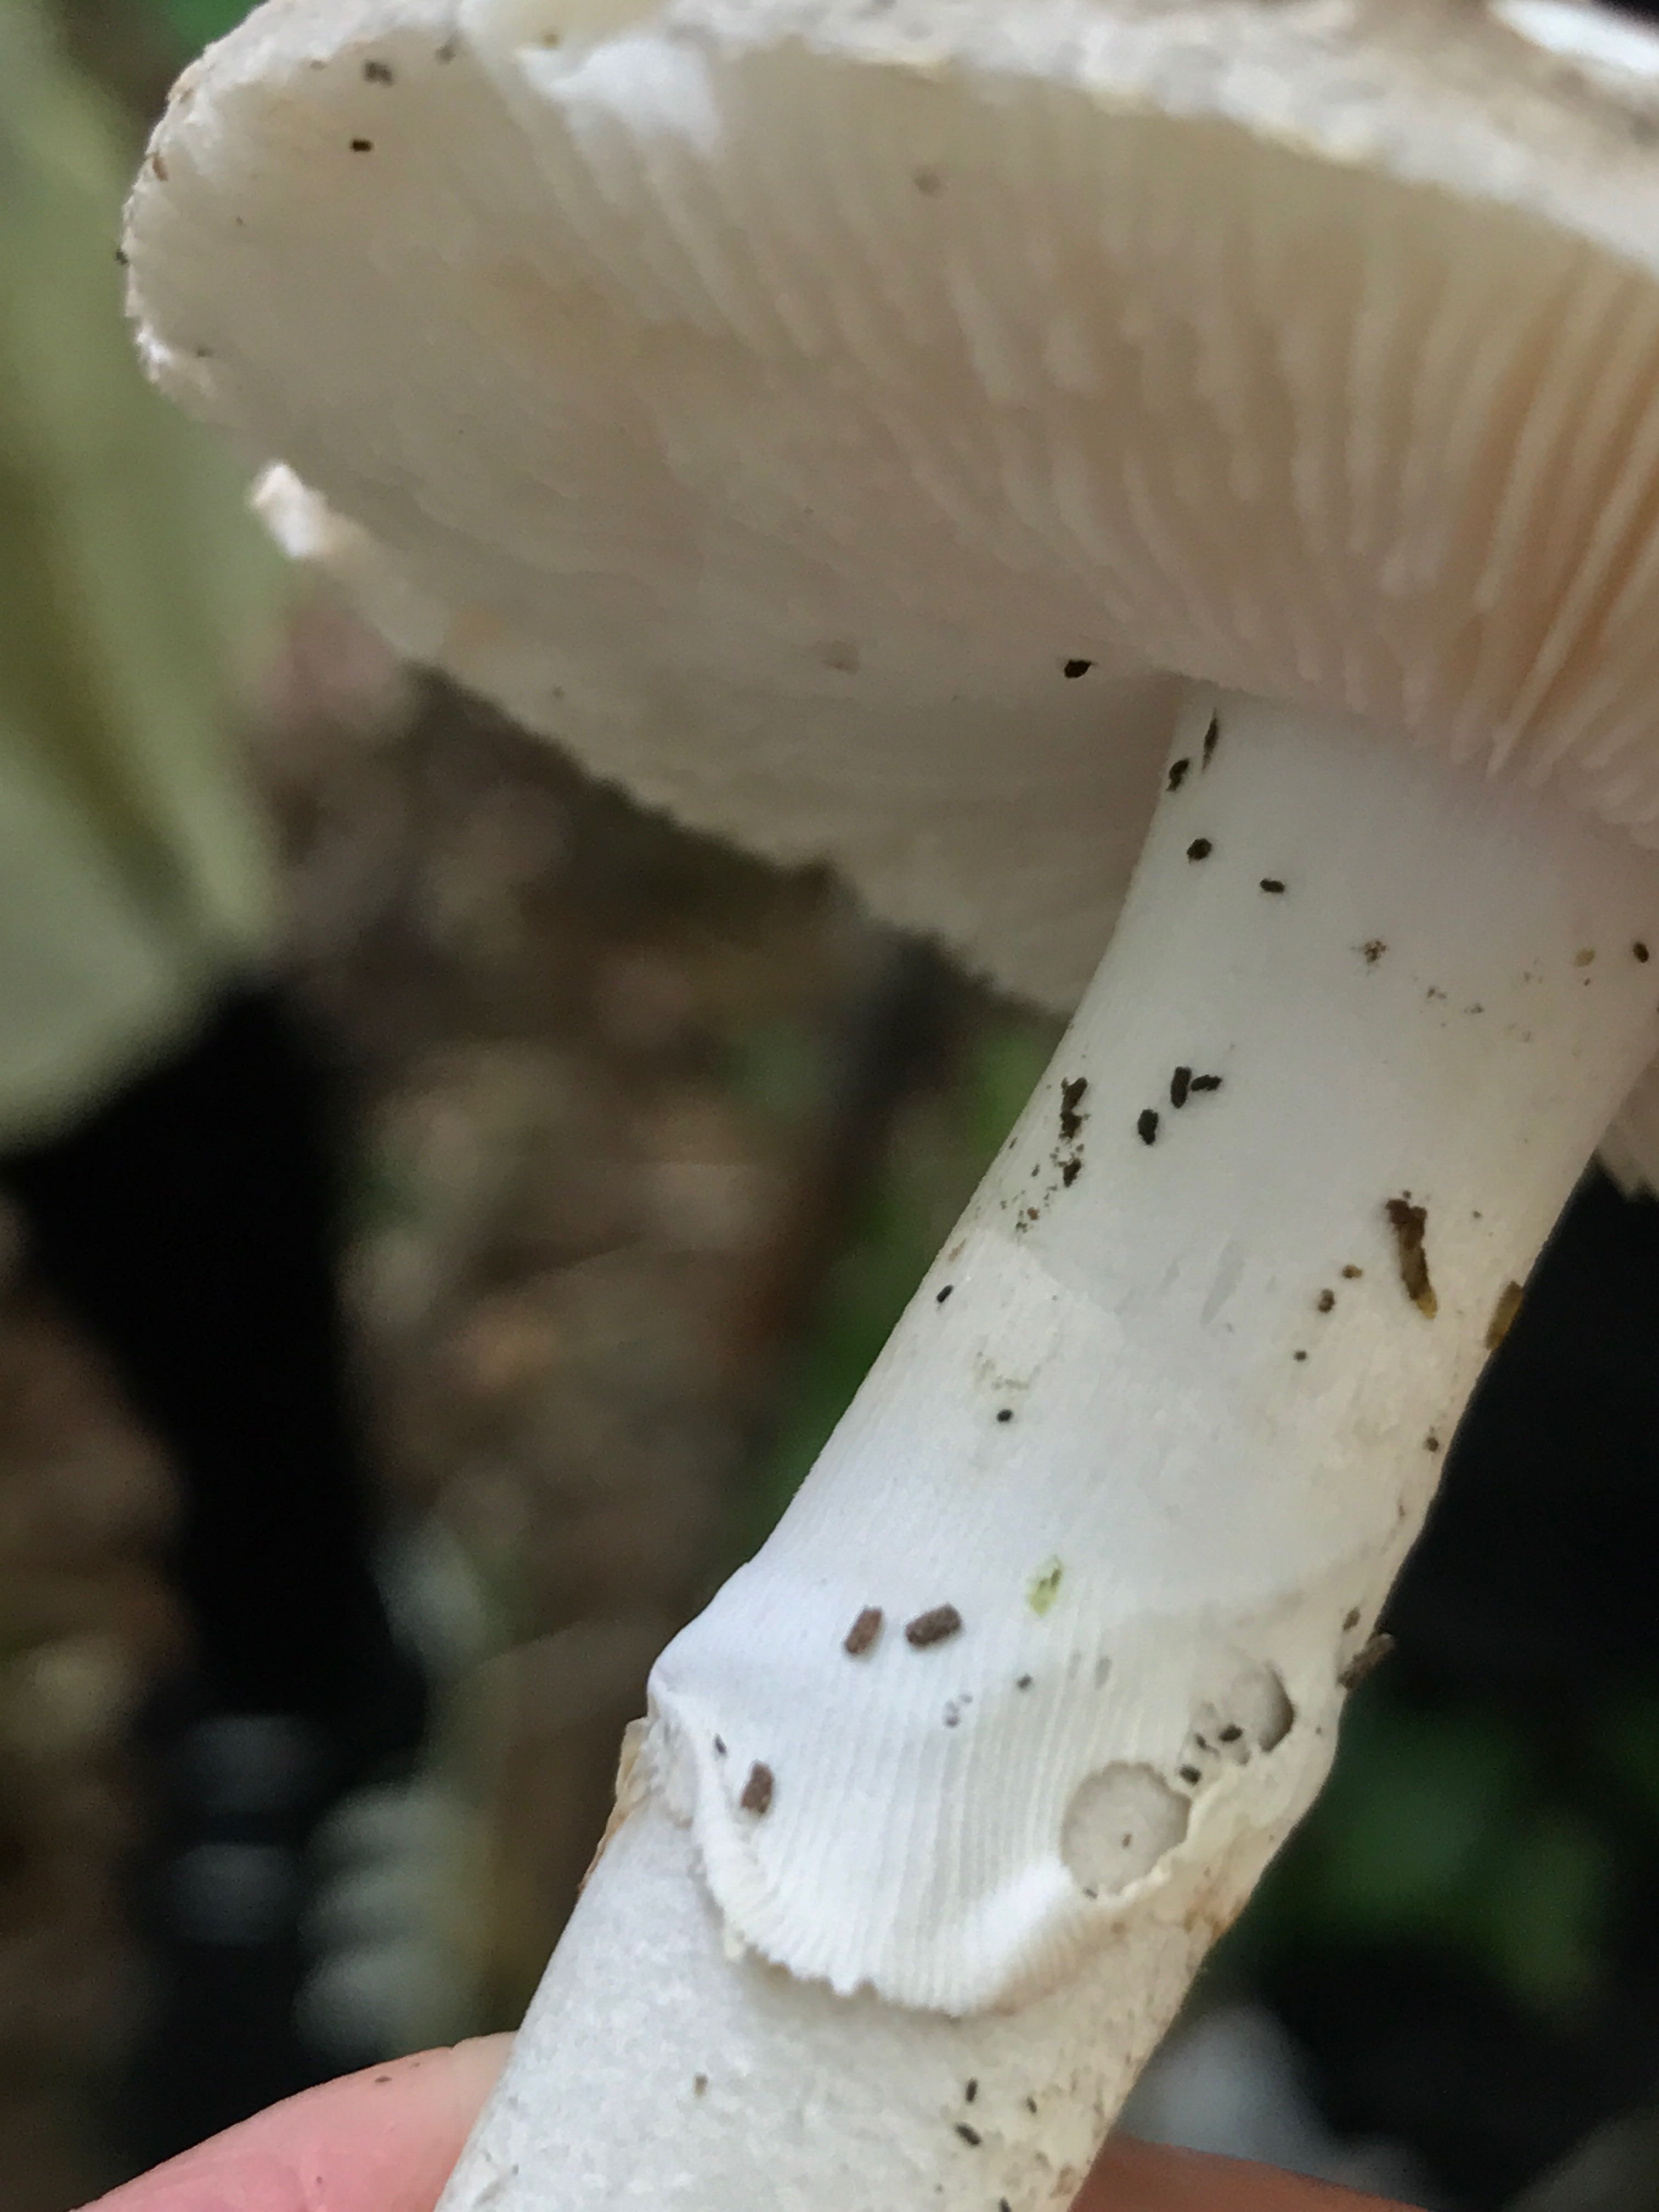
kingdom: Fungi
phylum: Basidiomycota
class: Agaricomycetes
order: Agaricales
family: Amanitaceae
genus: Amanita
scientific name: Amanita
